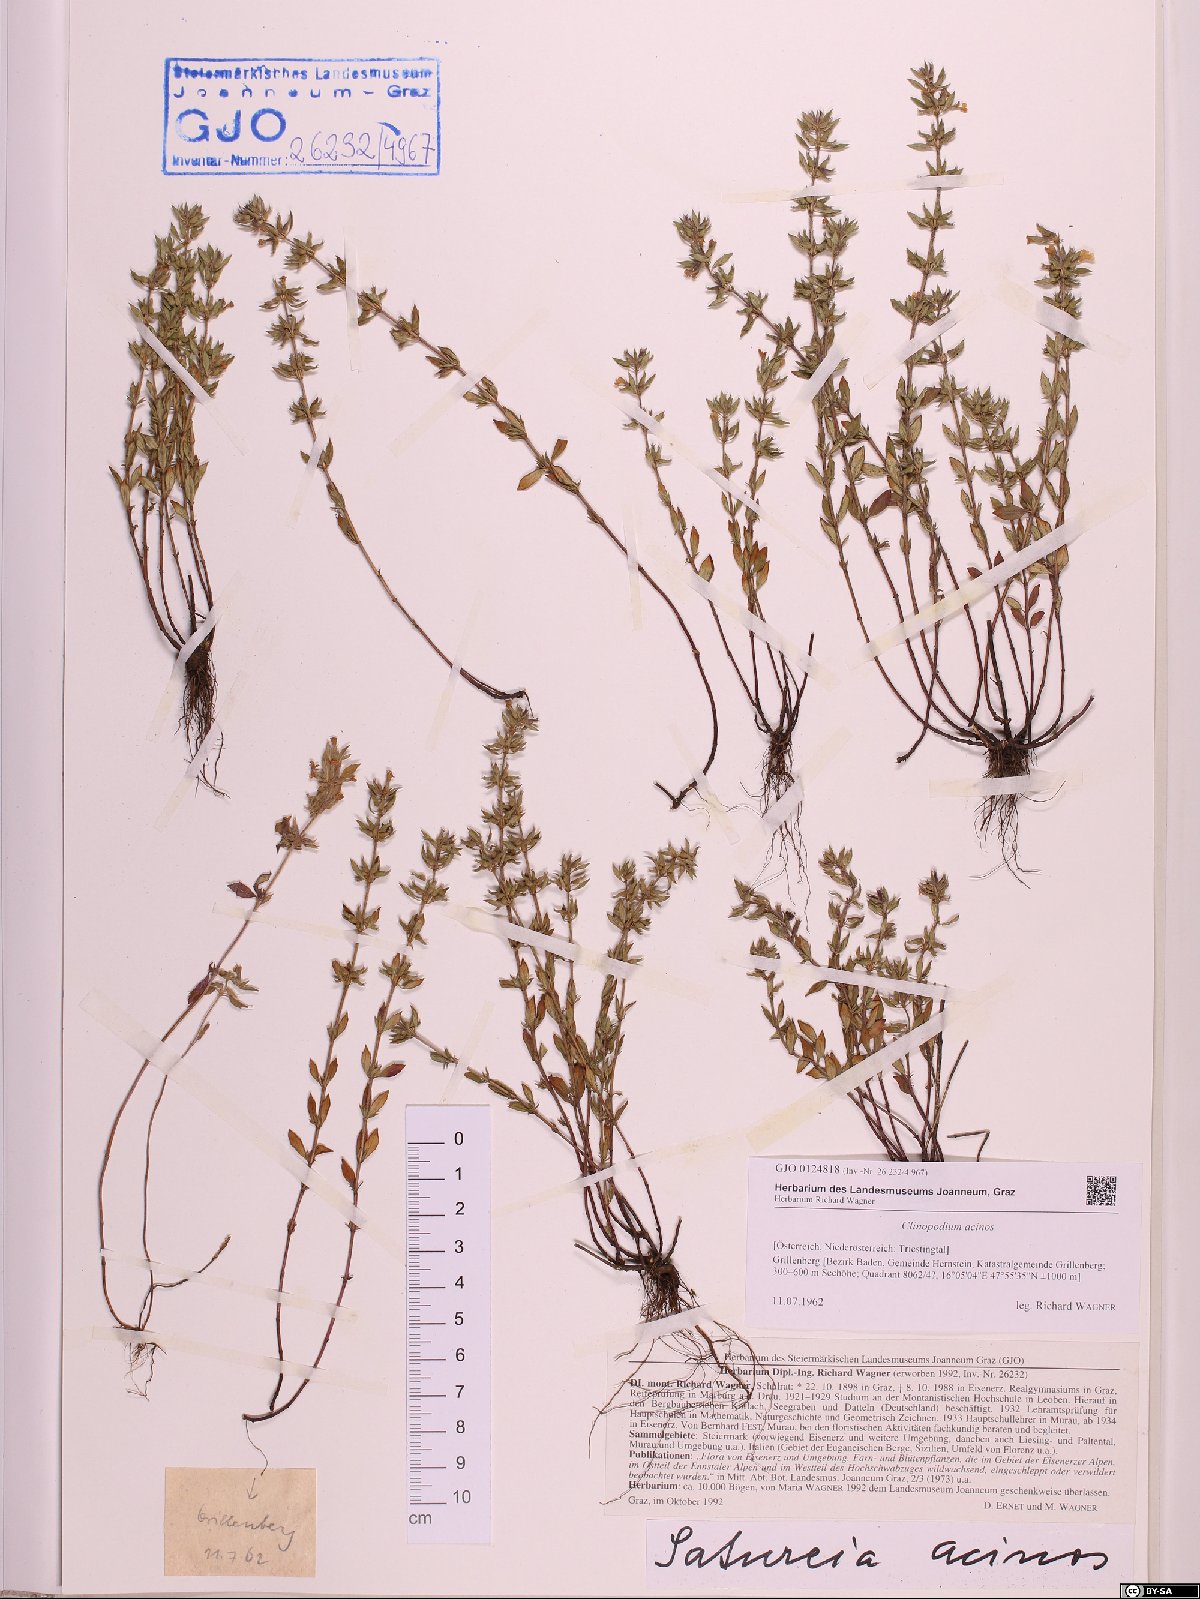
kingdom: Plantae
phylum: Tracheophyta
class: Magnoliopsida
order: Lamiales
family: Lamiaceae
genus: Clinopodium
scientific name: Clinopodium acinos
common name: Basil thyme
